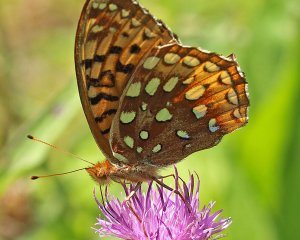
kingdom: Animalia
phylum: Arthropoda
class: Insecta
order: Lepidoptera
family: Nymphalidae
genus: Speyeria
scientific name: Speyeria cybele
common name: Great Spangled Fritillary
